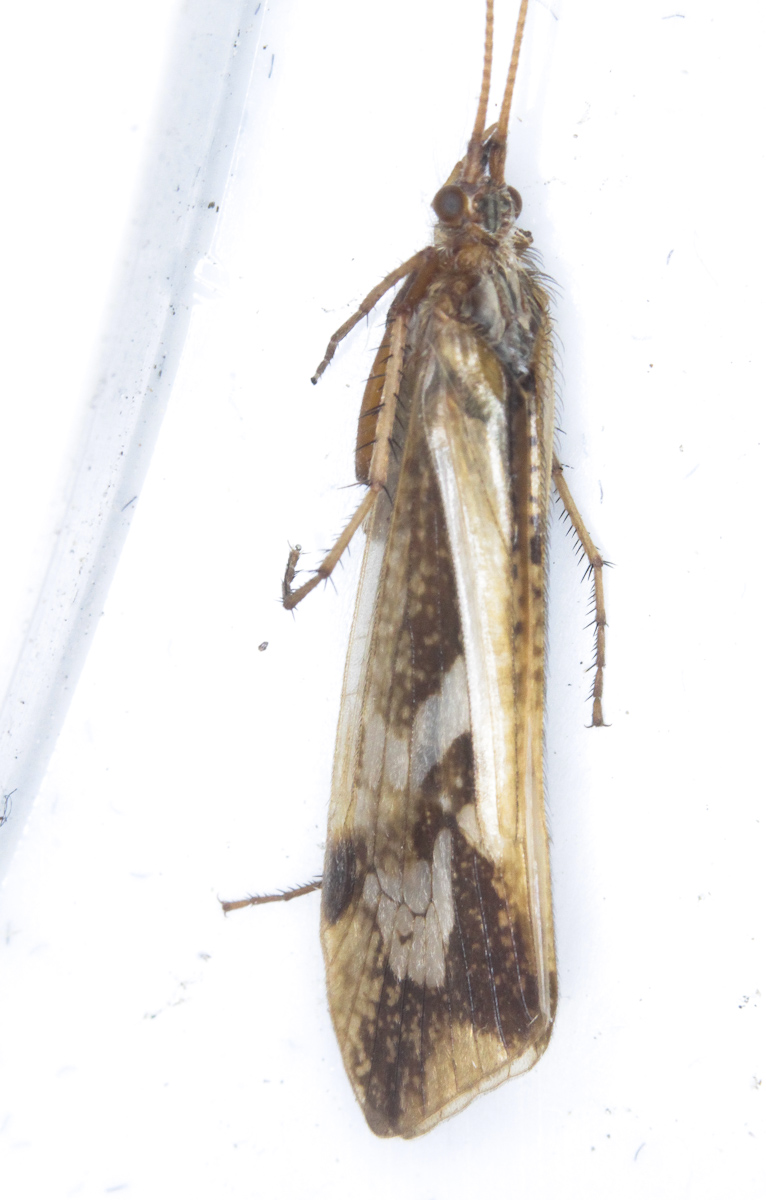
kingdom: Animalia
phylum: Arthropoda
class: Insecta
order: Trichoptera
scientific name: Trichoptera
